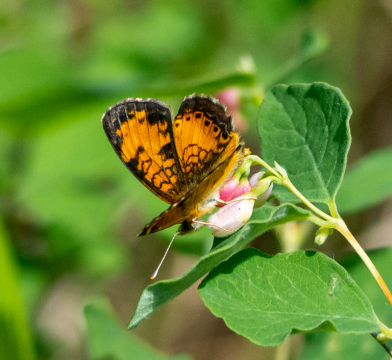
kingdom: Animalia
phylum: Arthropoda
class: Insecta
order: Lepidoptera
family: Nymphalidae
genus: Phyciodes
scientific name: Phyciodes tharos
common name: Northern Crescent
